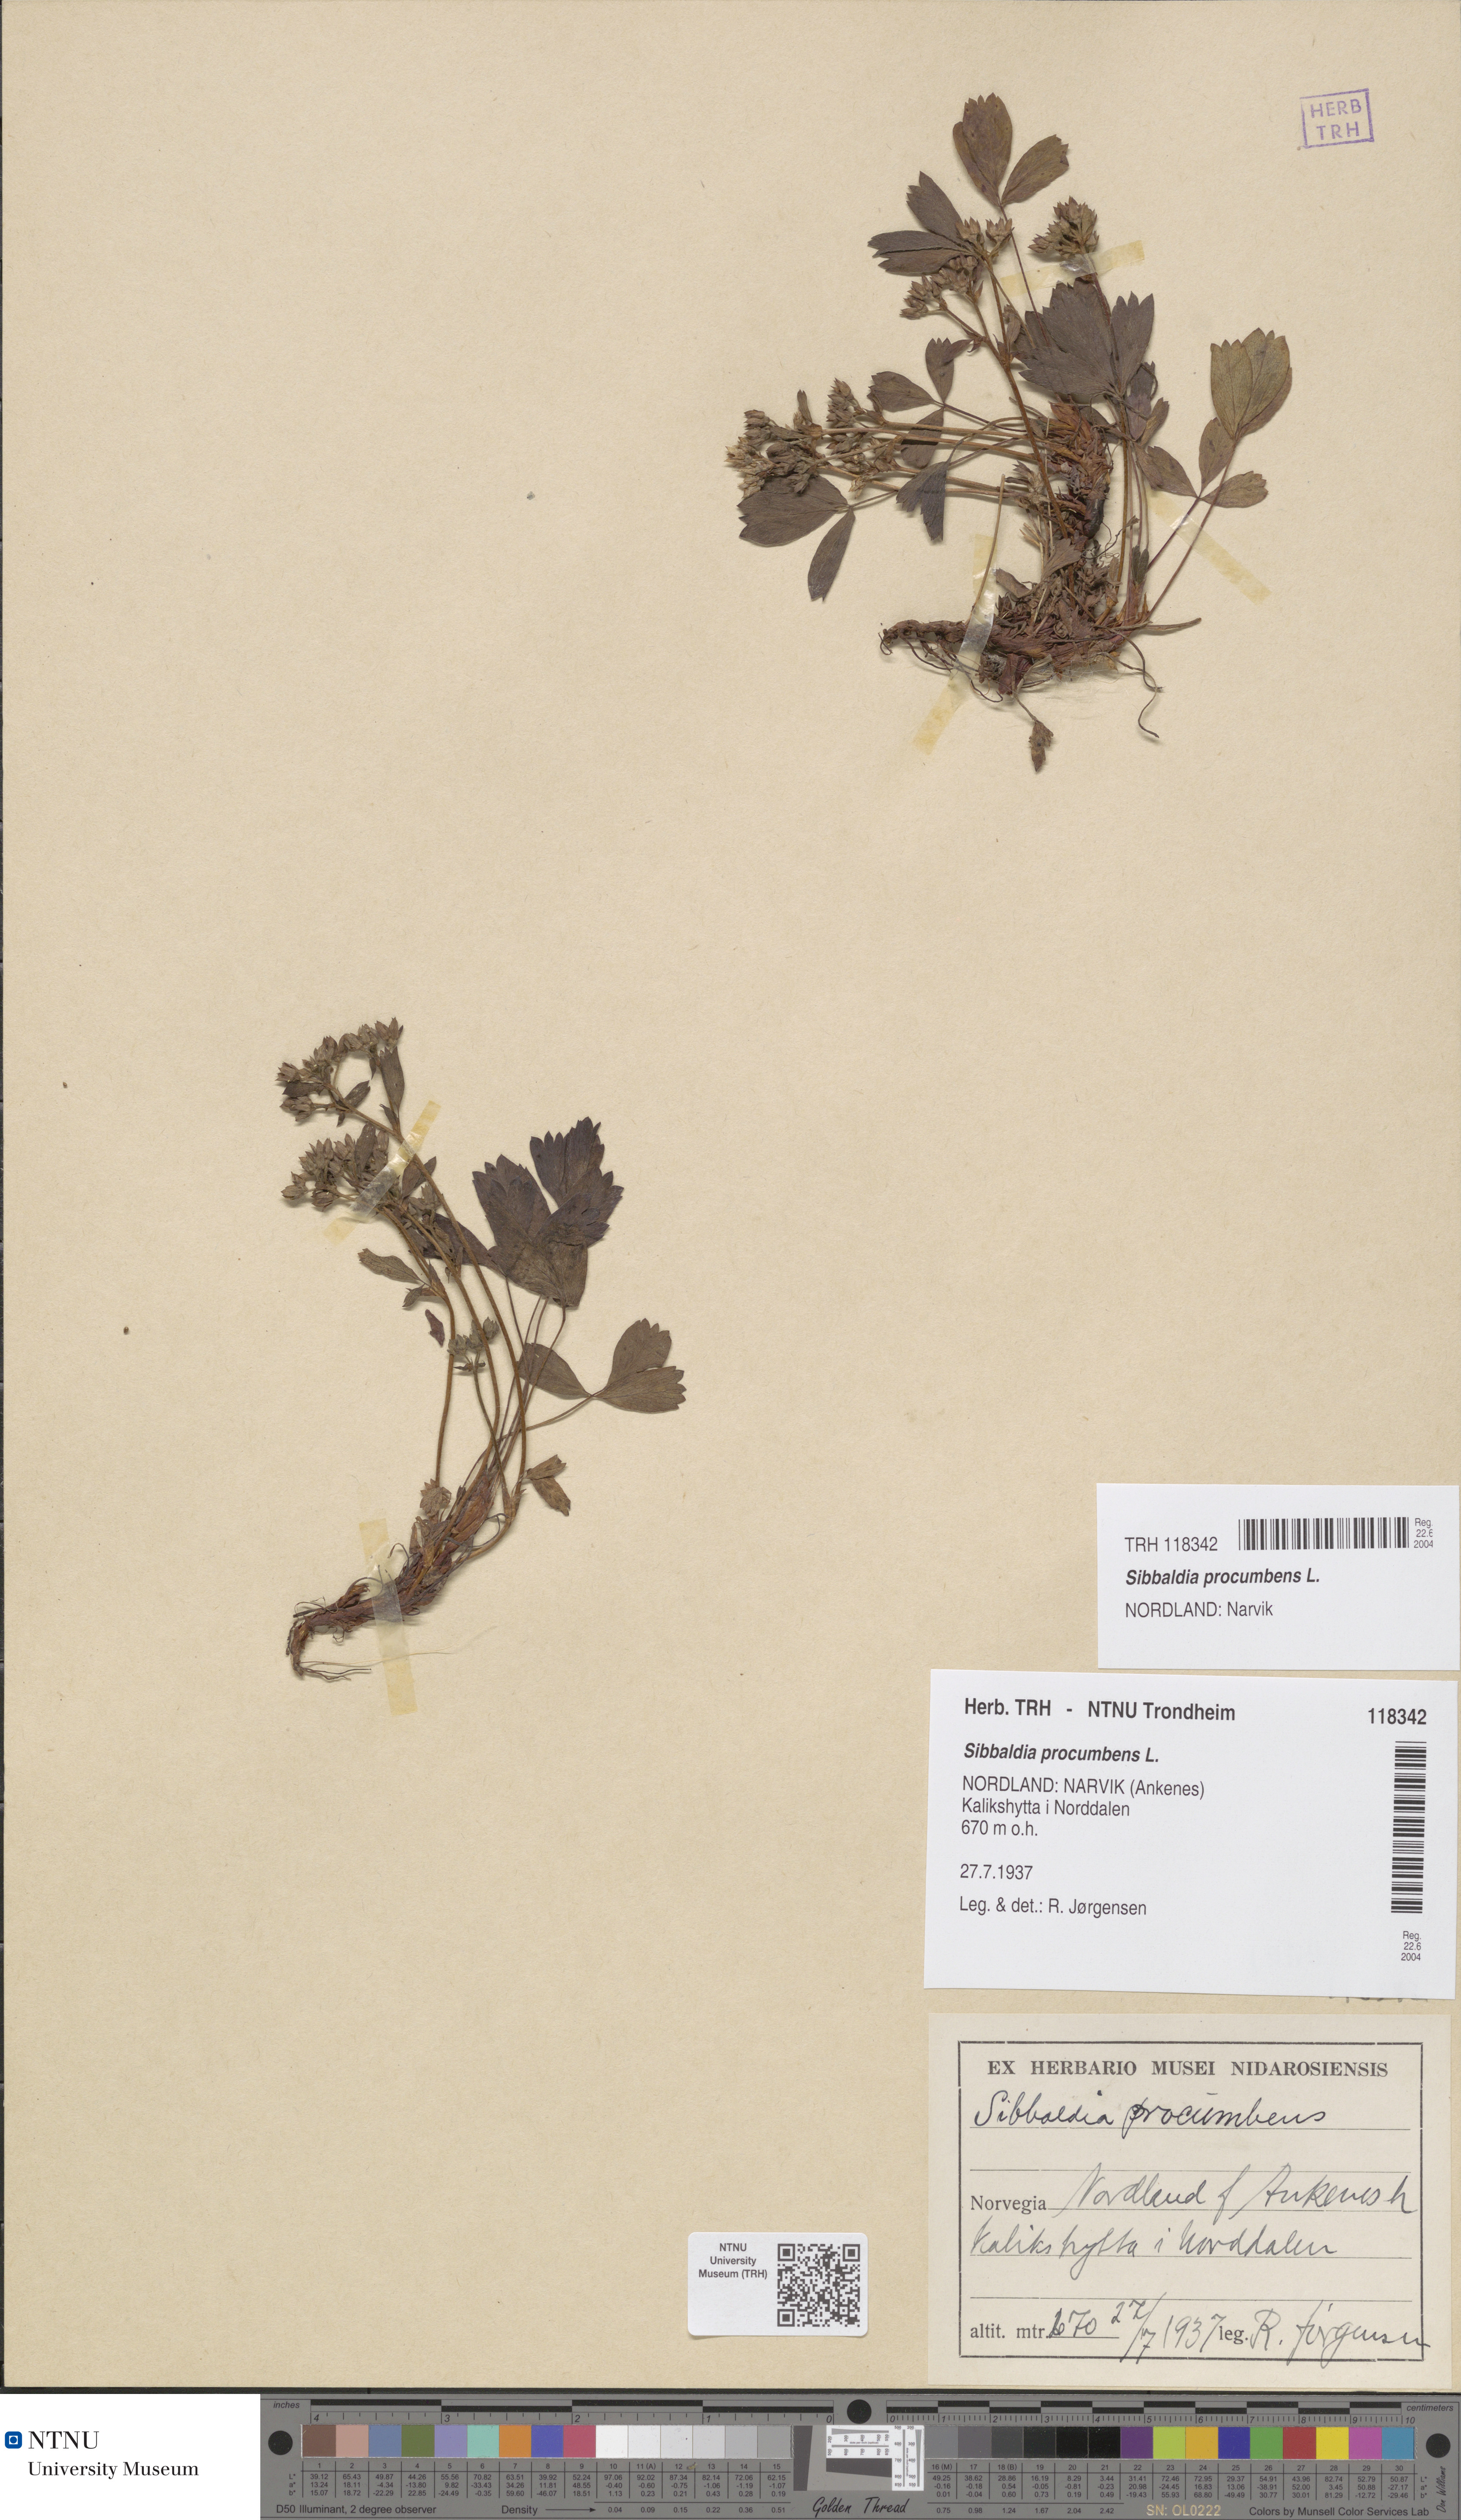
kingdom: Plantae
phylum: Tracheophyta
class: Magnoliopsida
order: Rosales
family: Rosaceae
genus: Sibbaldia
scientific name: Sibbaldia procumbens
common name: Creeping sibbaldia
